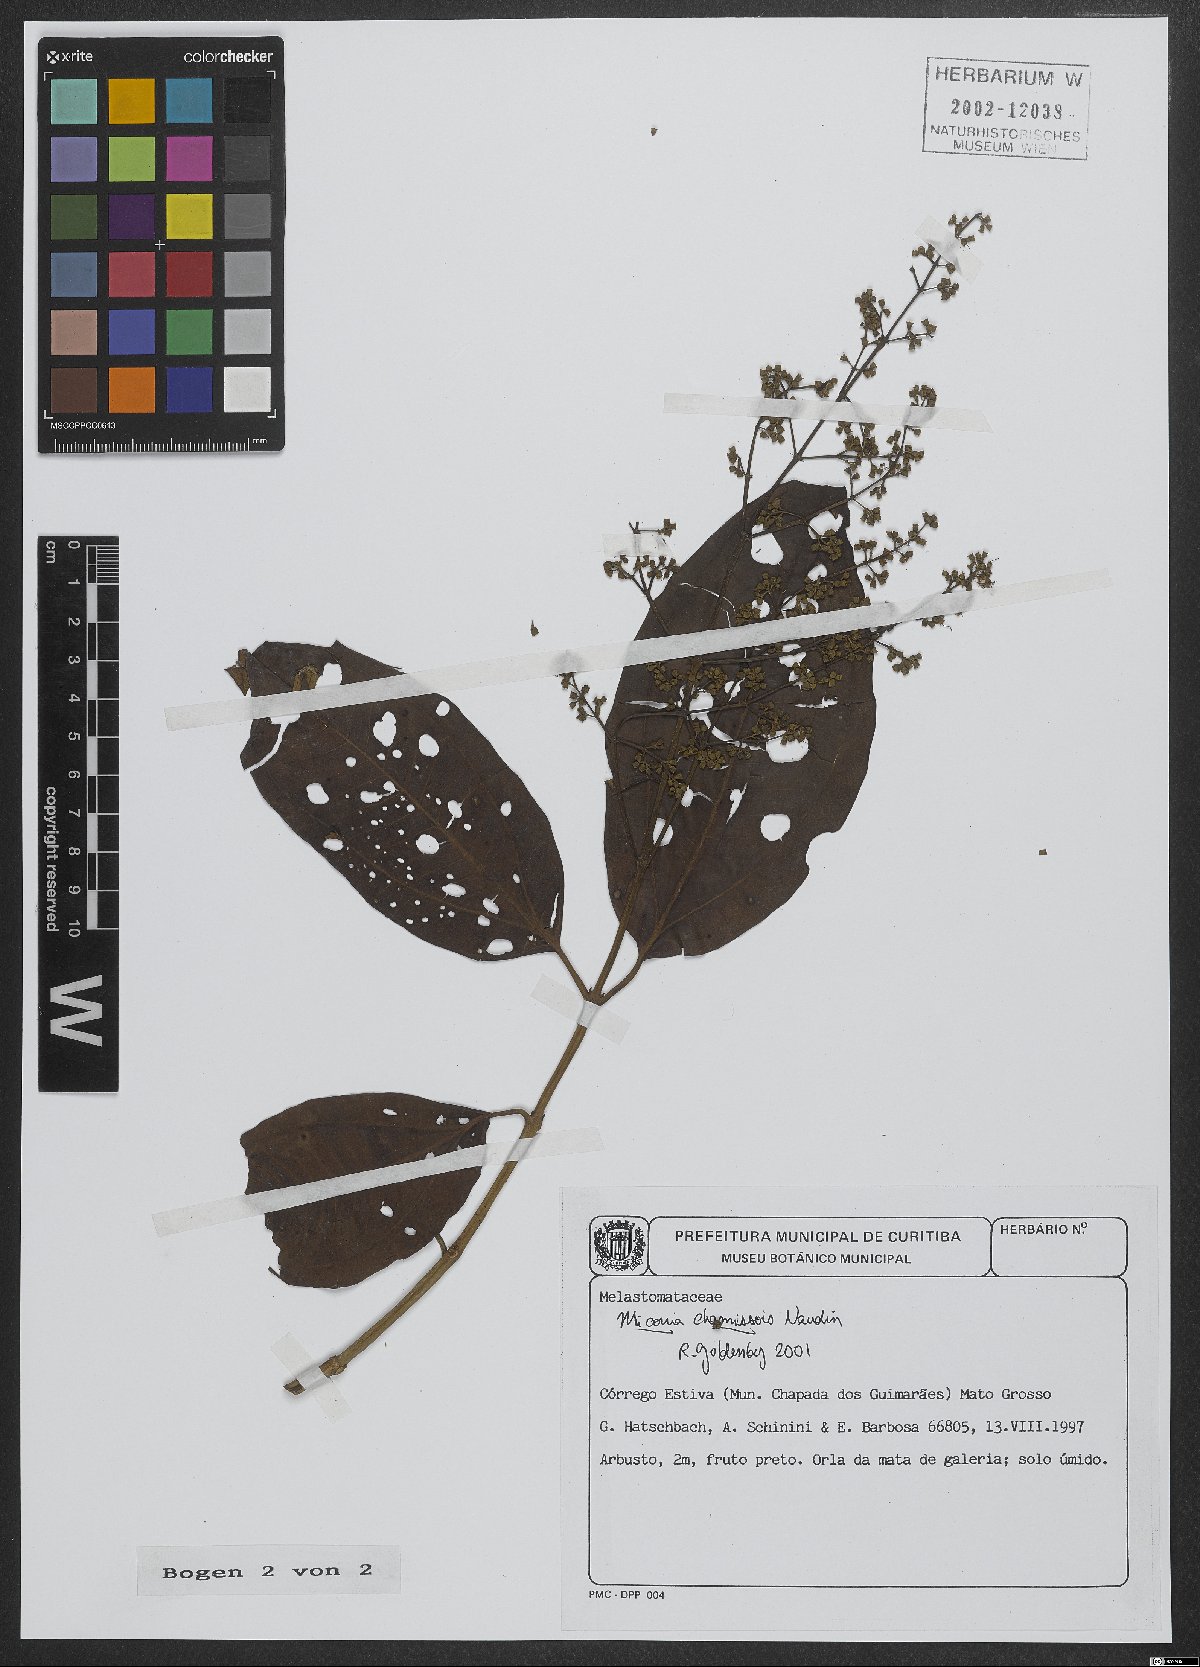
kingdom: Plantae
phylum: Tracheophyta
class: Magnoliopsida
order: Myrtales
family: Melastomataceae
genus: Miconia
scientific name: Miconia chamissois
